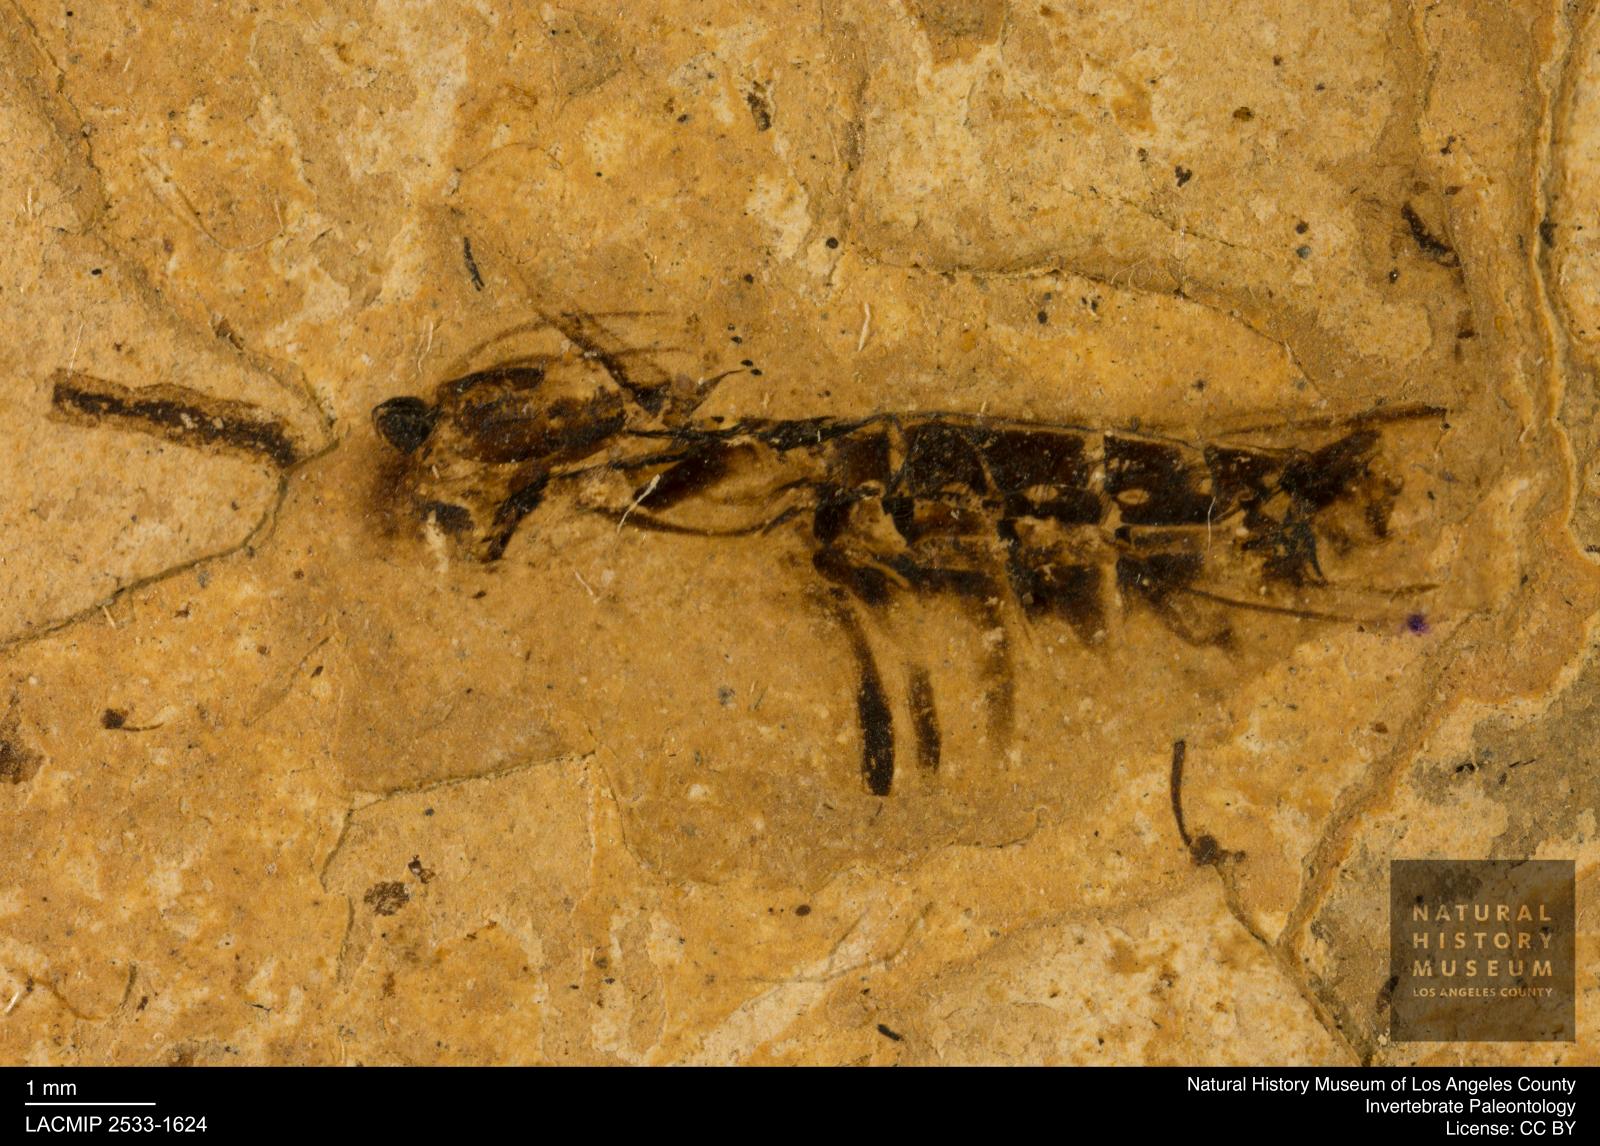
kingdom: Animalia
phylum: Arthropoda
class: Insecta
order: Hemiptera
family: Notonectidae
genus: Notonecta
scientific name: Notonecta
